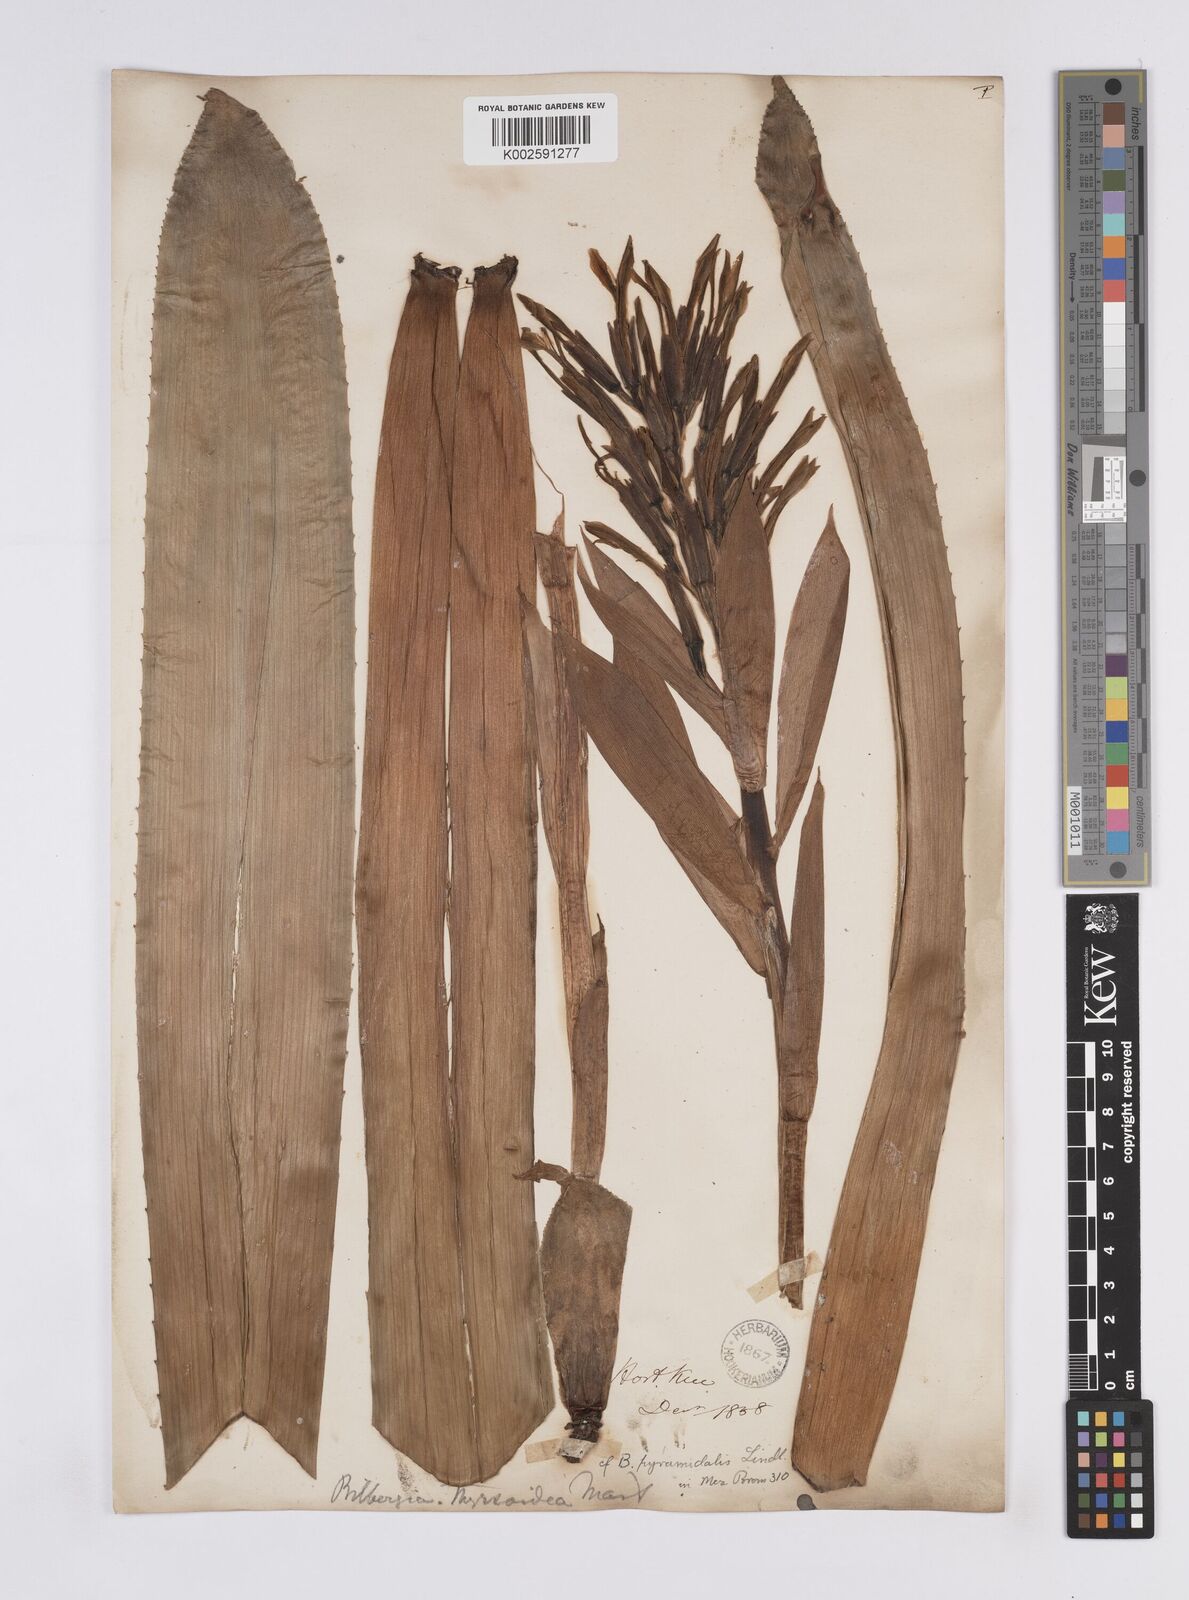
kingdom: Plantae
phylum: Tracheophyta
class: Liliopsida
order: Poales
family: Bromeliaceae
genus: Billbergia
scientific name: Billbergia pyramidalis
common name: Foolproofplant
